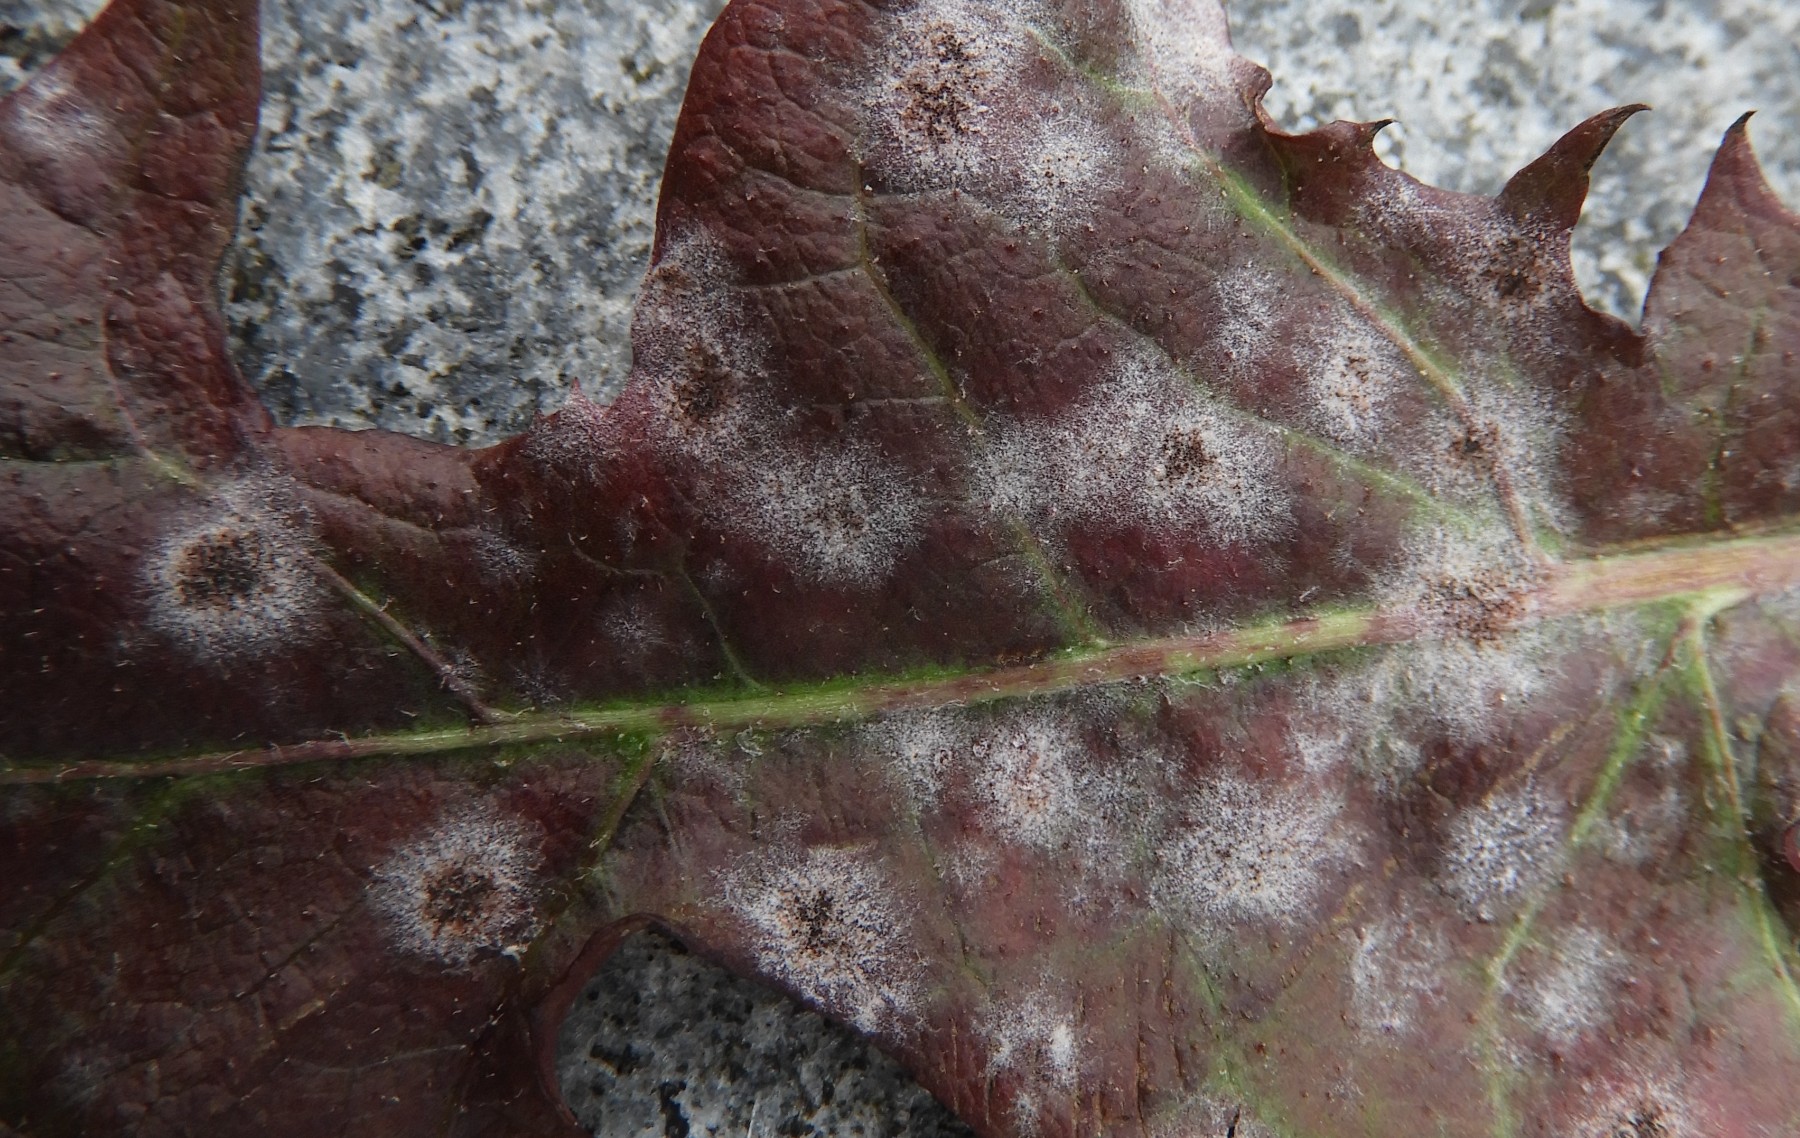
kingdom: Fungi
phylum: Ascomycota
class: Leotiomycetes
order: Helotiales
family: Erysiphaceae
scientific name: Erysiphaceae
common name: meldugfamilien
